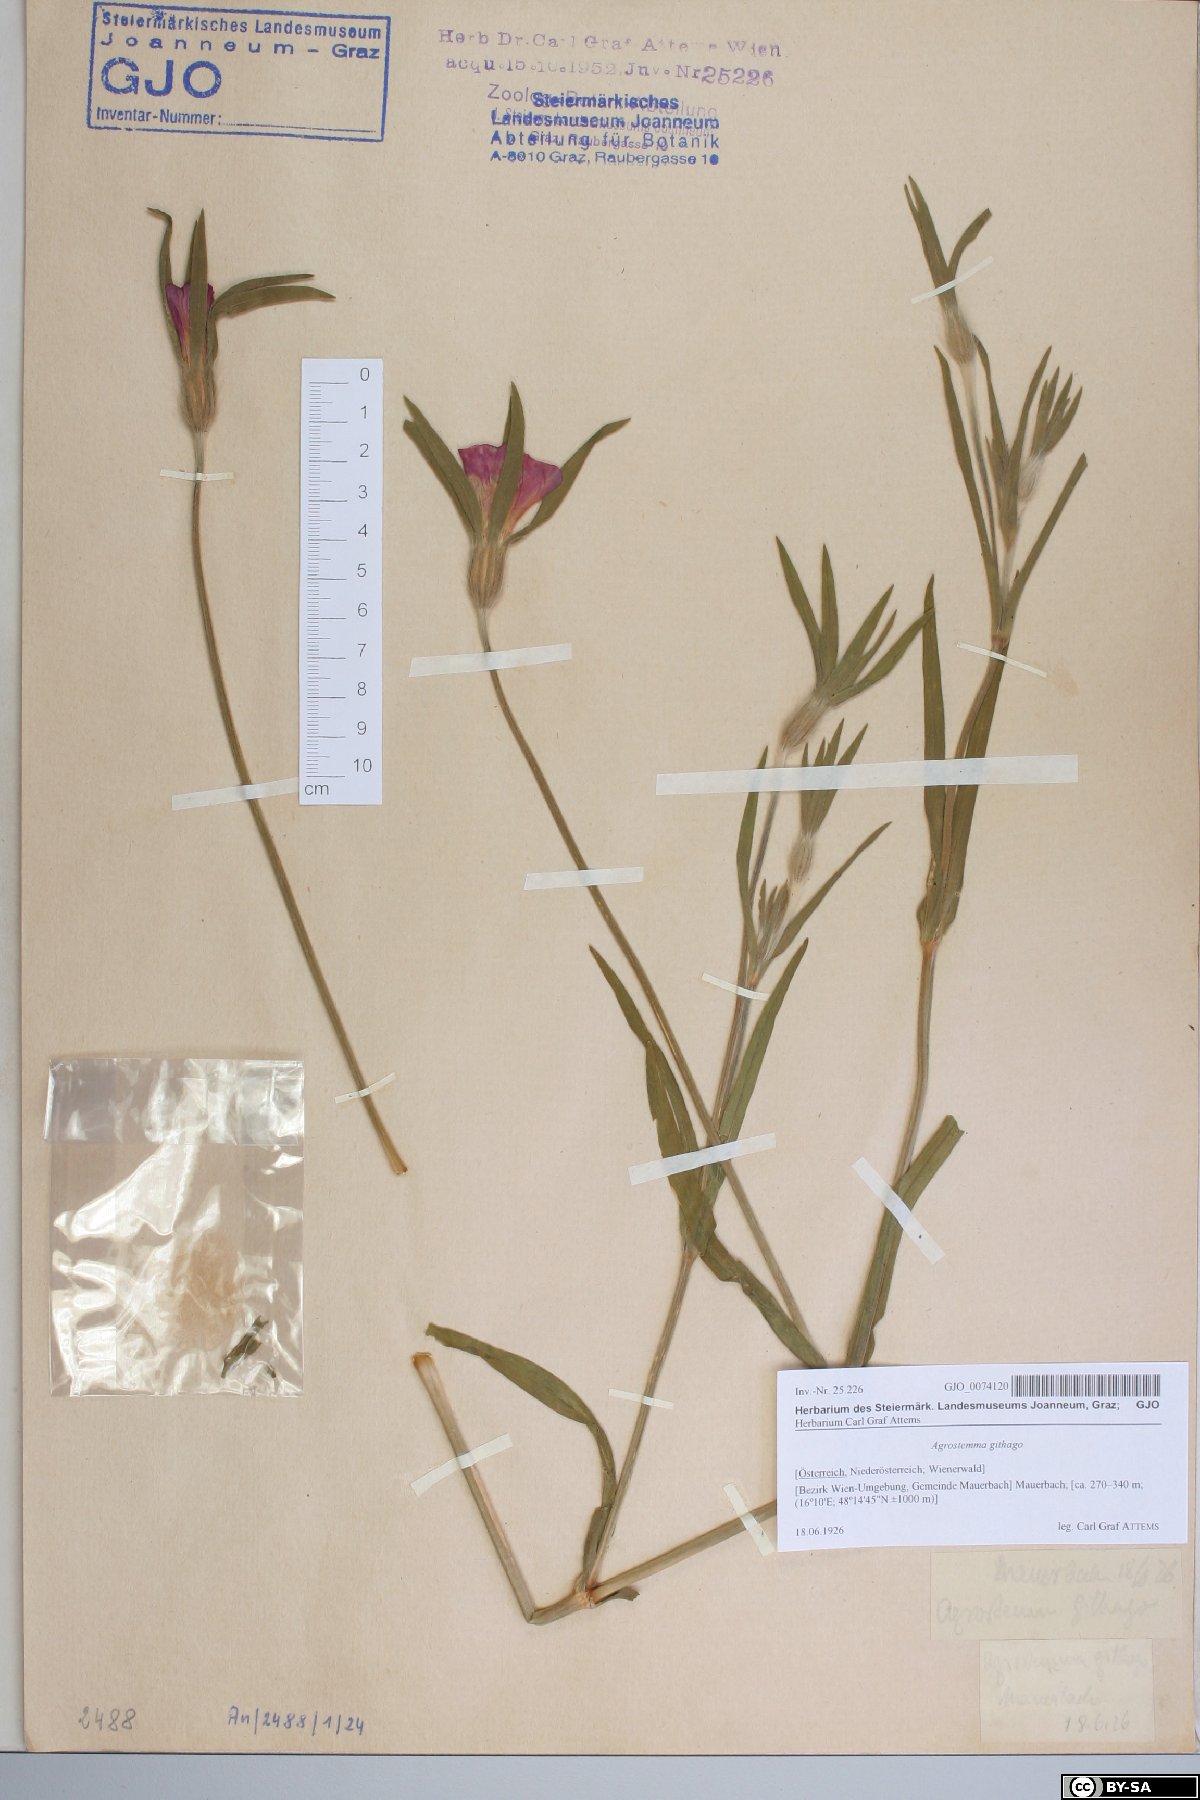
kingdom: Plantae
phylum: Tracheophyta
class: Magnoliopsida
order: Caryophyllales
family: Caryophyllaceae
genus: Agrostemma
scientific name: Agrostemma githago
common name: Common corncockle
